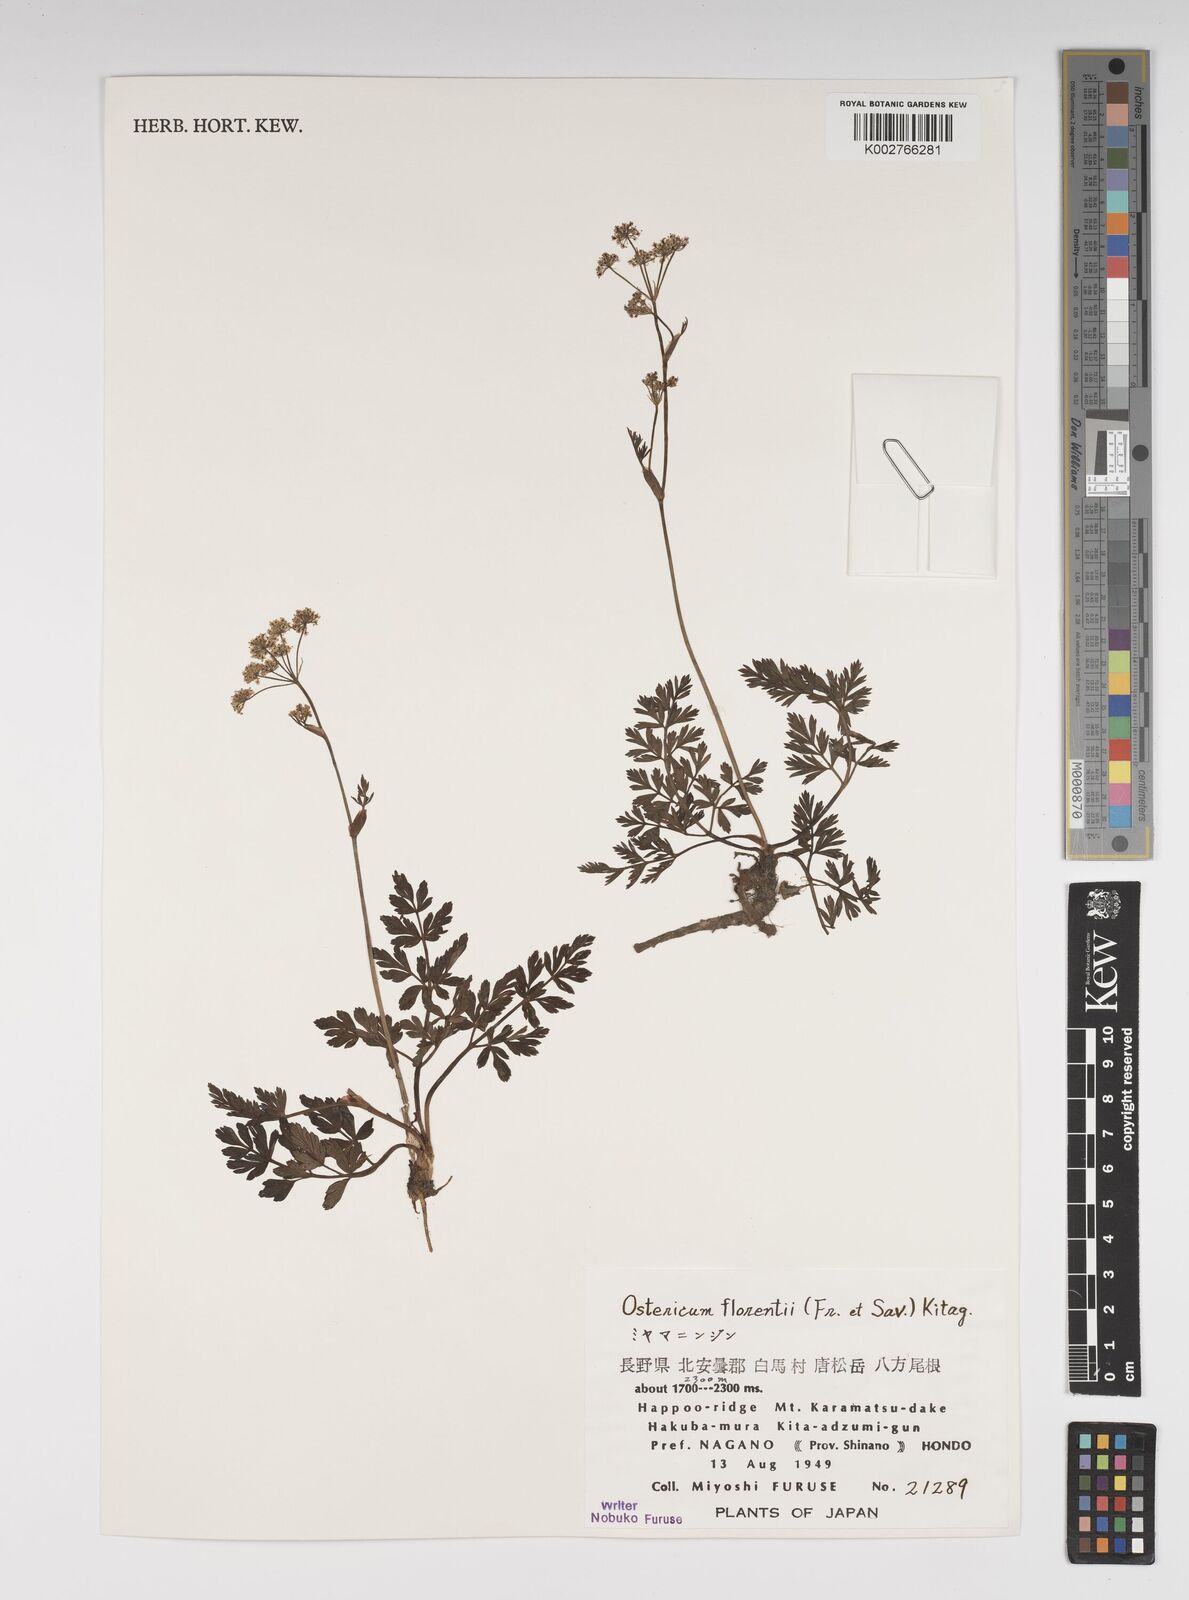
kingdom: Plantae
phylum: Tracheophyta
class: Magnoliopsida
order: Apiales
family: Apiaceae
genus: Ostericum
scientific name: Ostericum florenti
